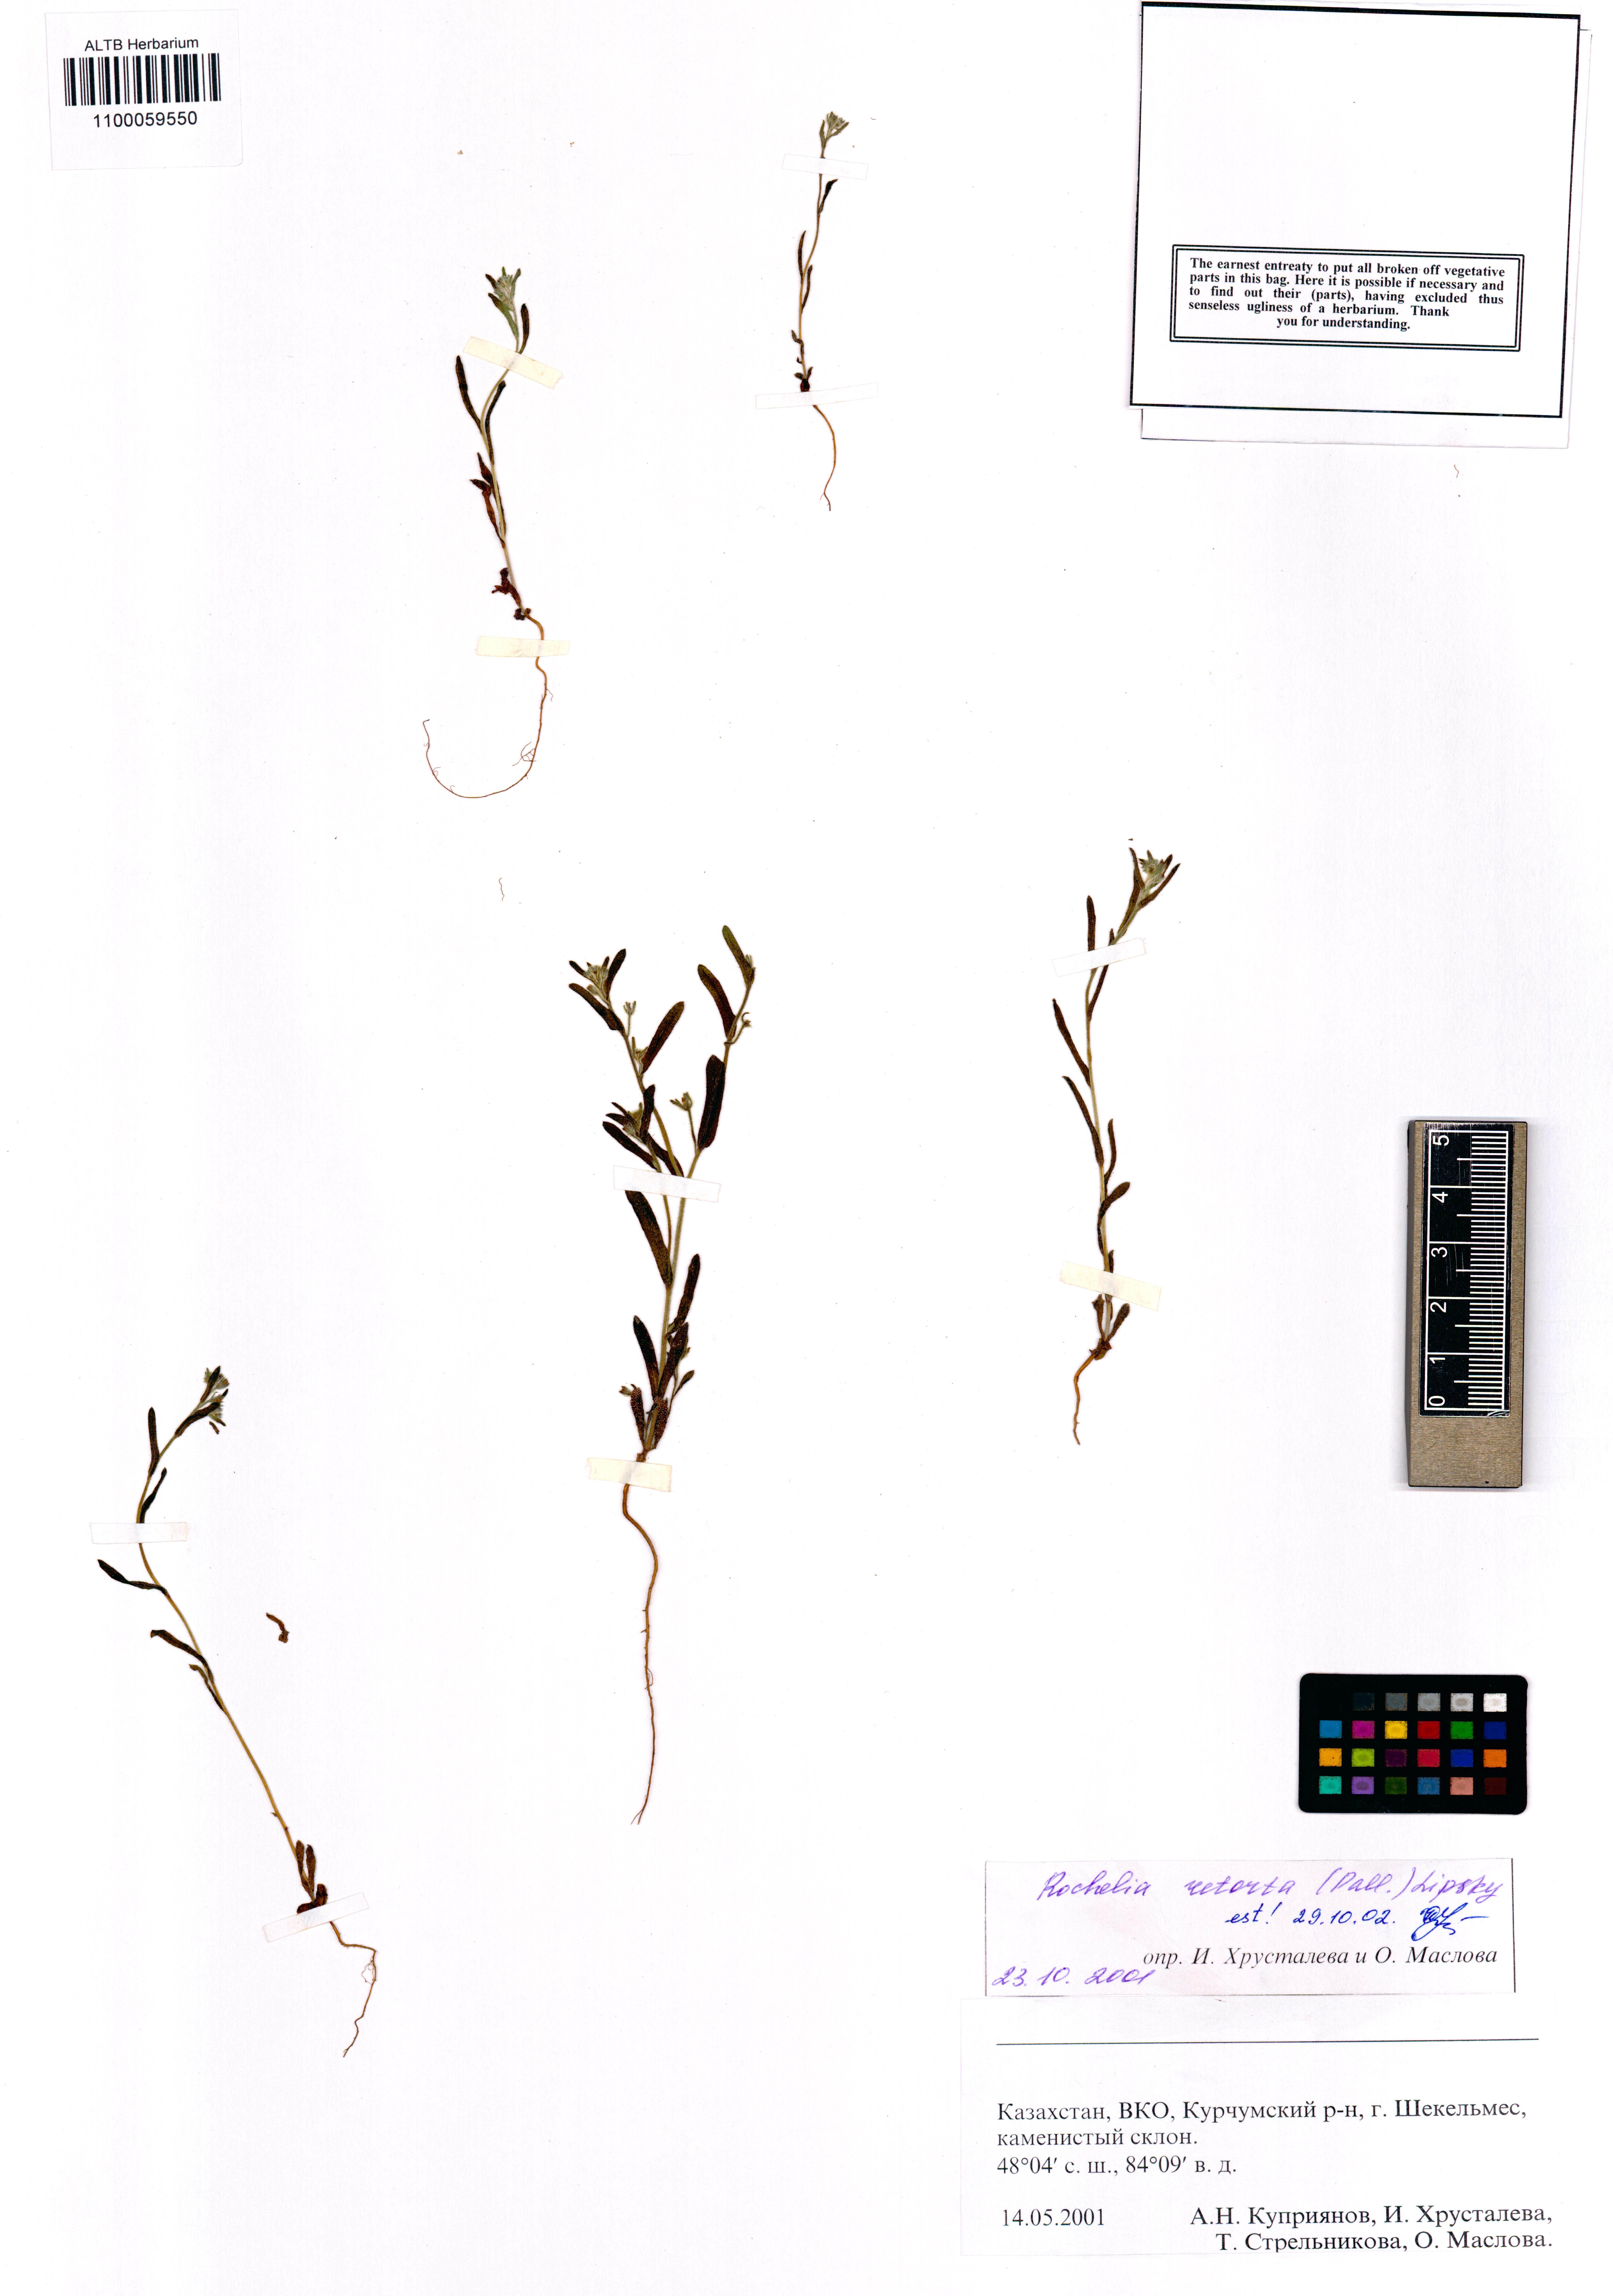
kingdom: Plantae
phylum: Tracheophyta
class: Magnoliopsida
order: Boraginales
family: Boraginaceae
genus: Rochelia
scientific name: Rochelia retorta
